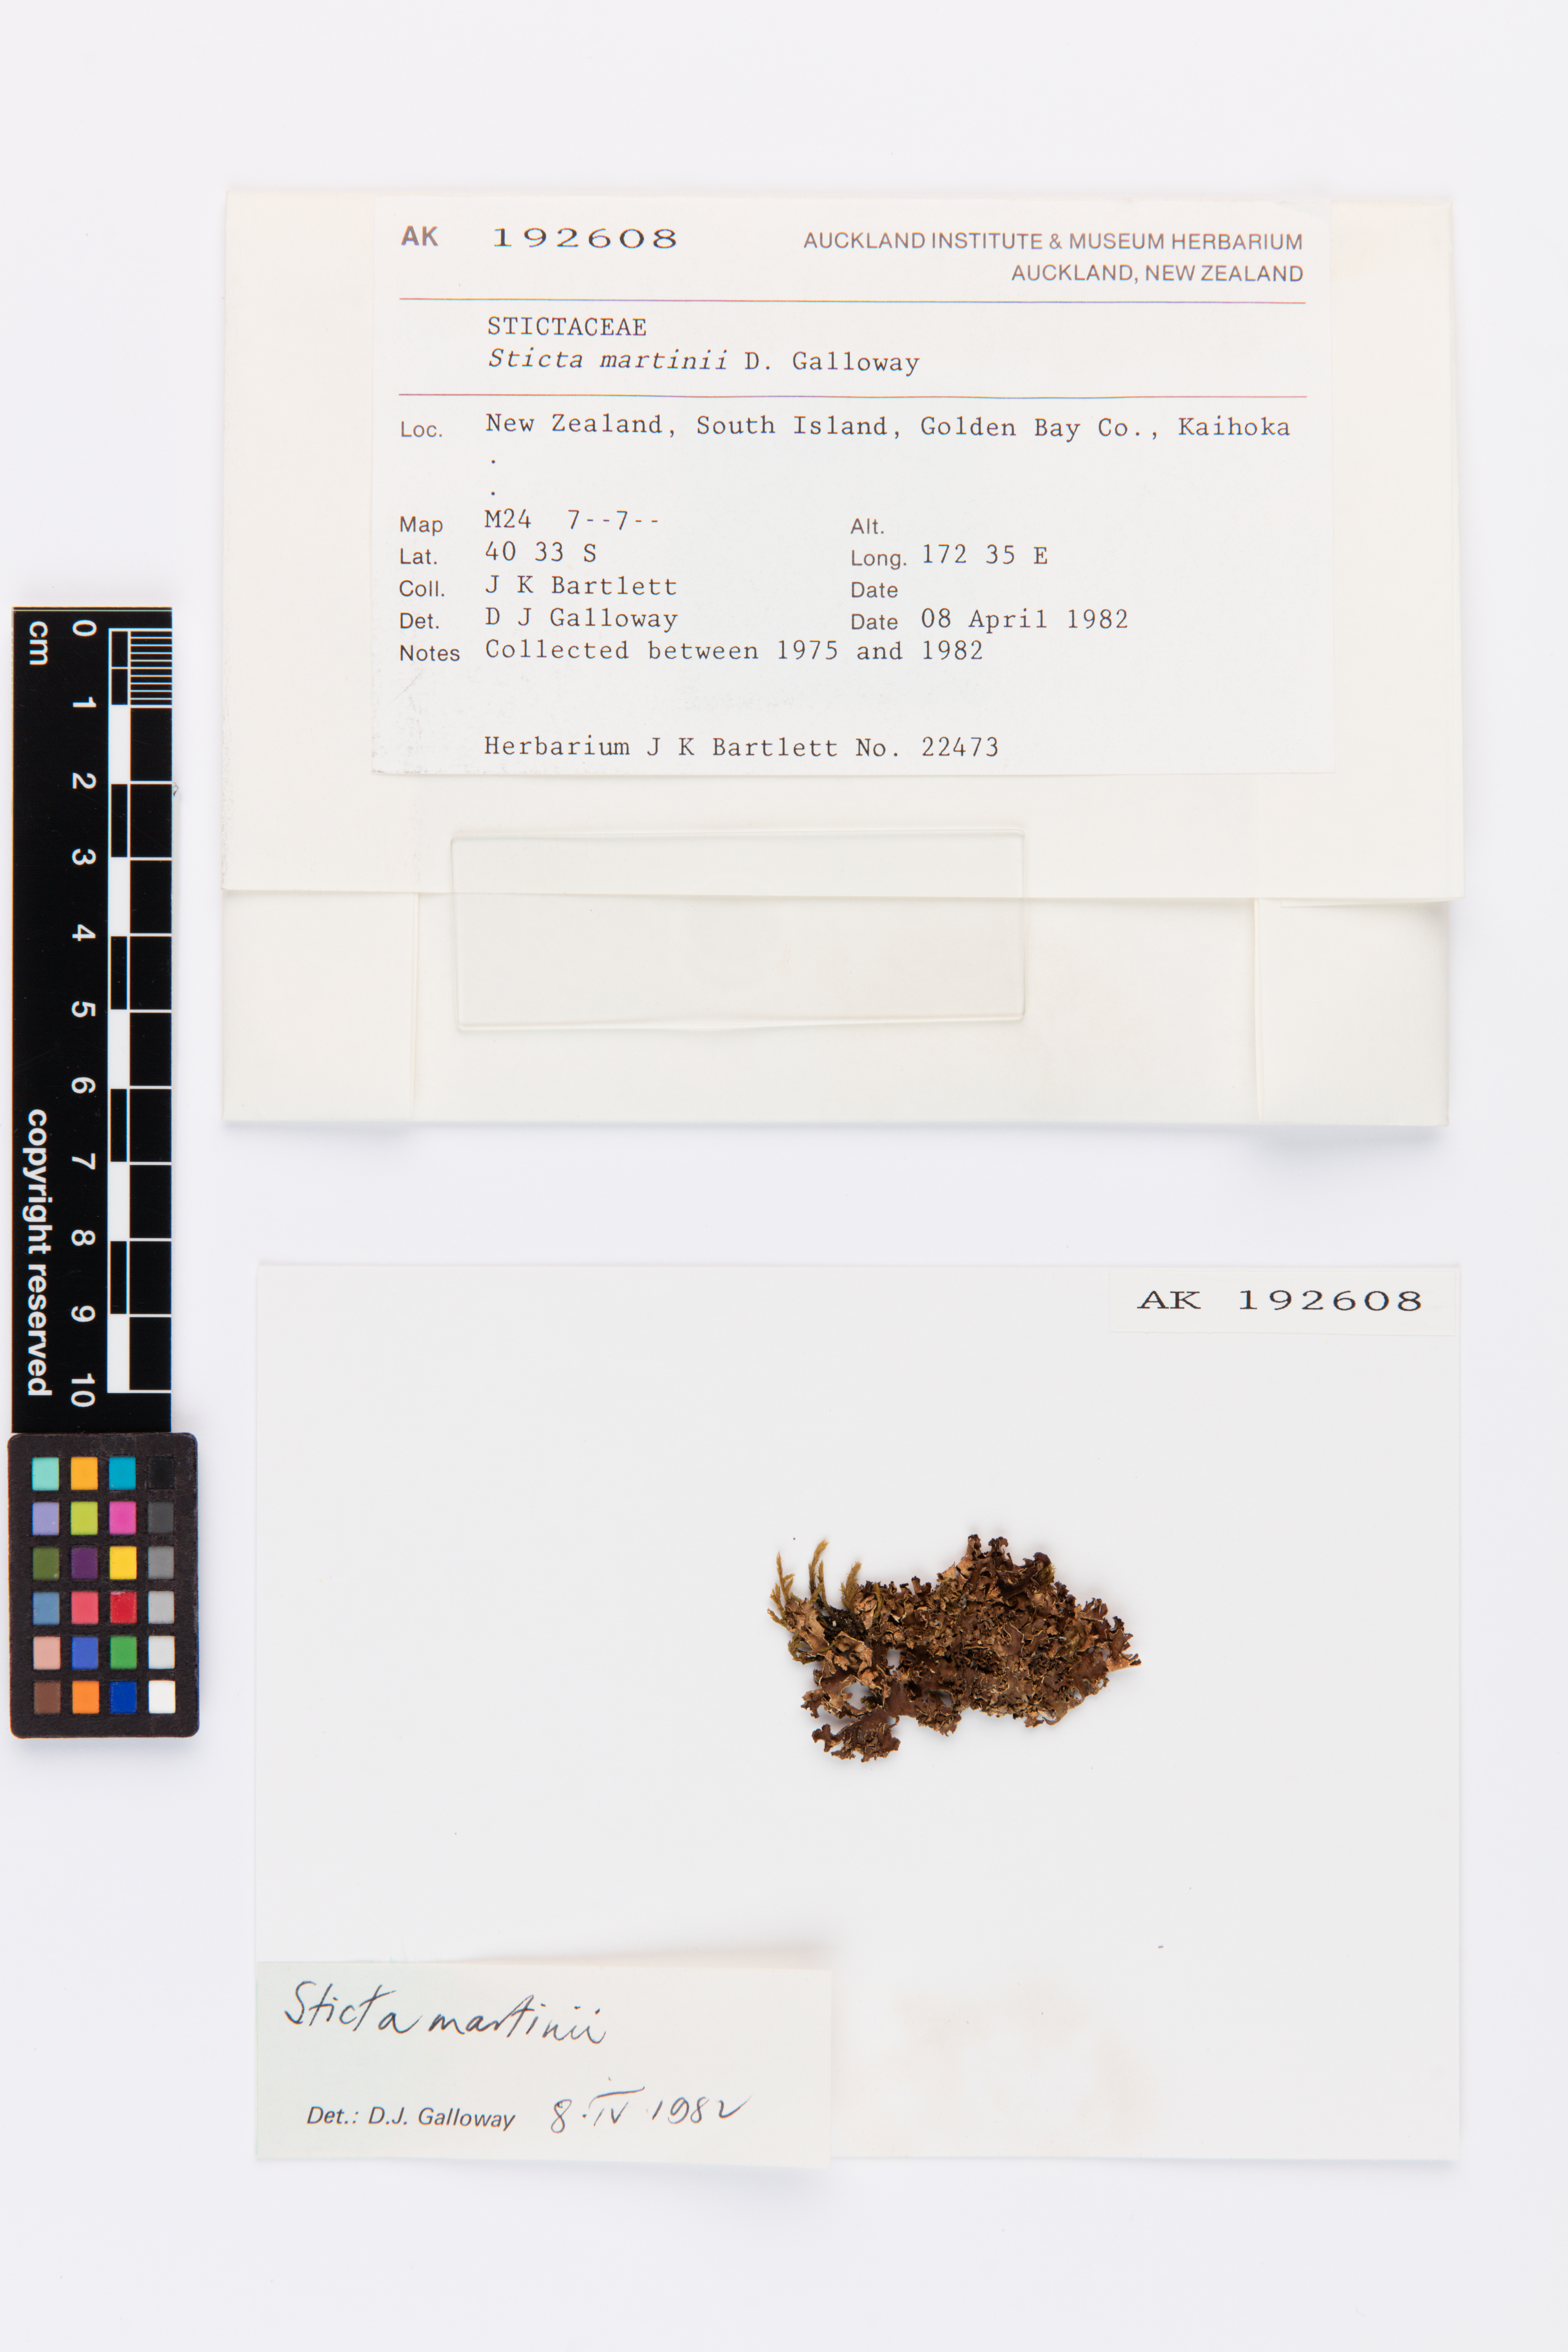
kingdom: Fungi
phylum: Ascomycota
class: Lecanoromycetes
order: Peltigerales
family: Lobariaceae
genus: Sticta
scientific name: Sticta martinii
